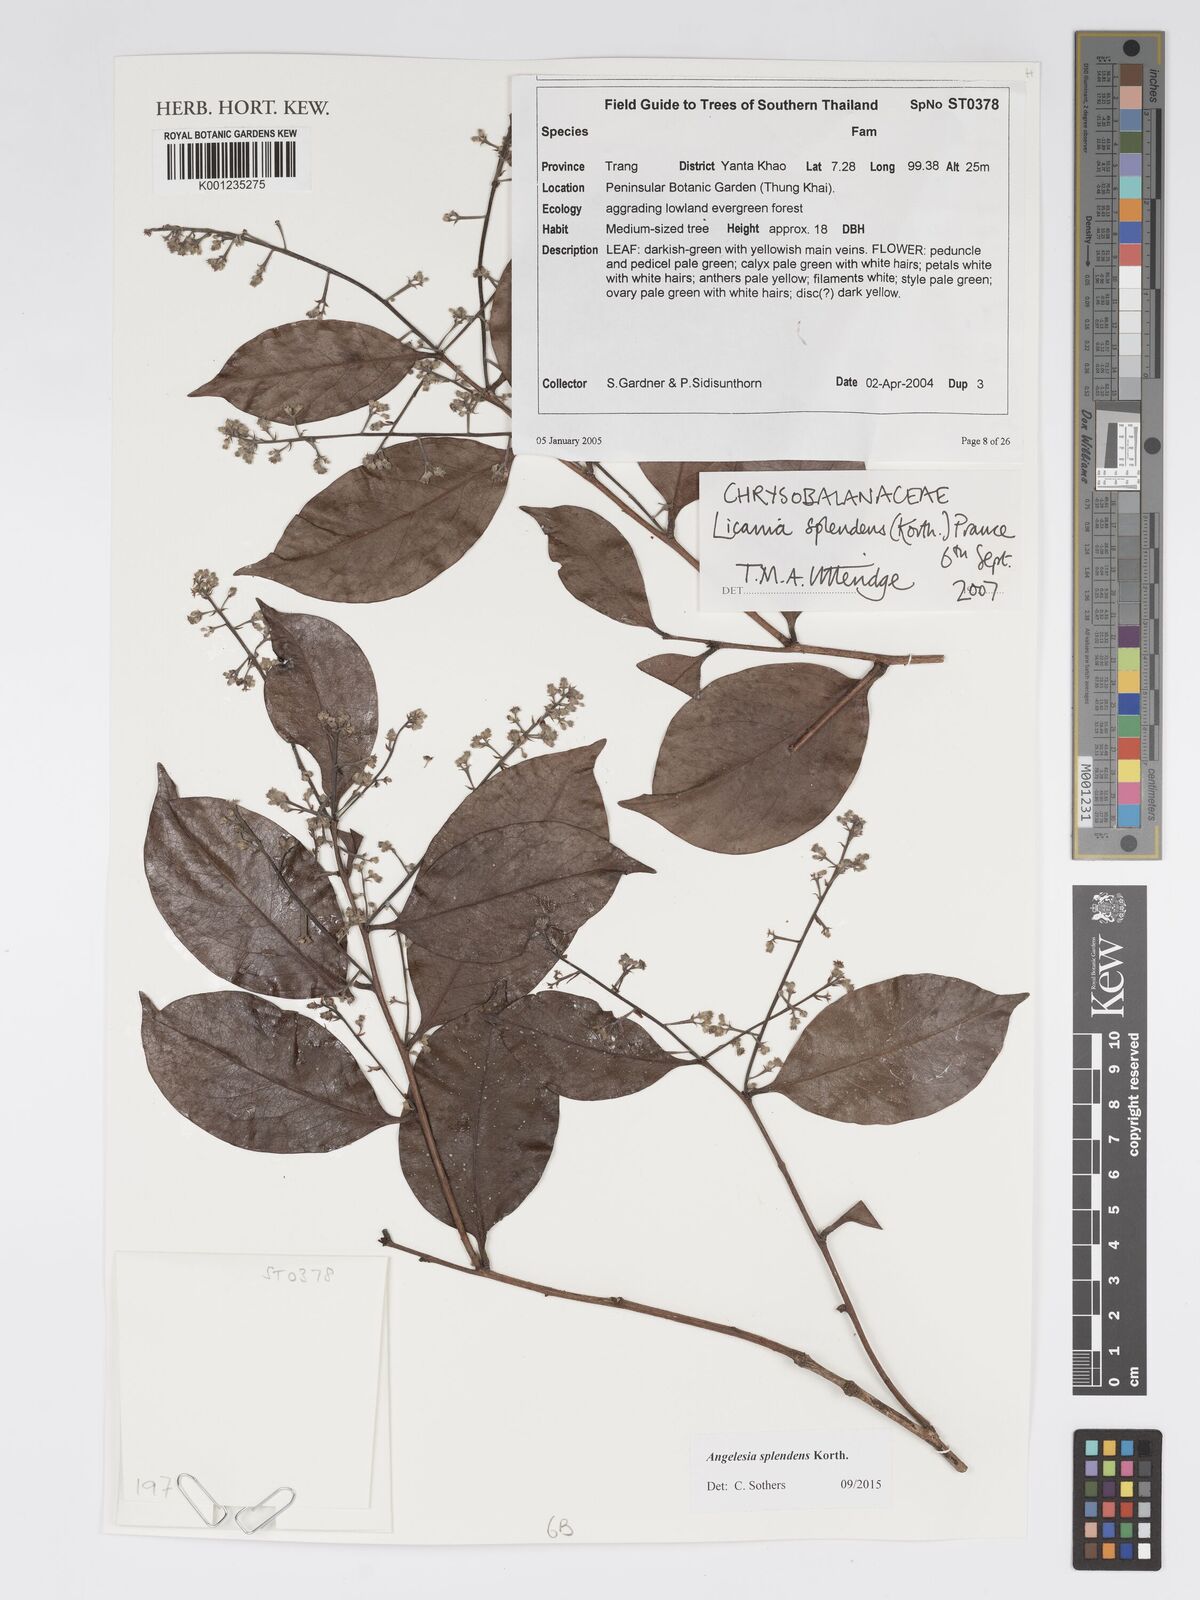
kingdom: Plantae
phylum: Tracheophyta
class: Magnoliopsida
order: Malpighiales
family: Chrysobalanaceae
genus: Angelesia
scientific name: Angelesia splendens
